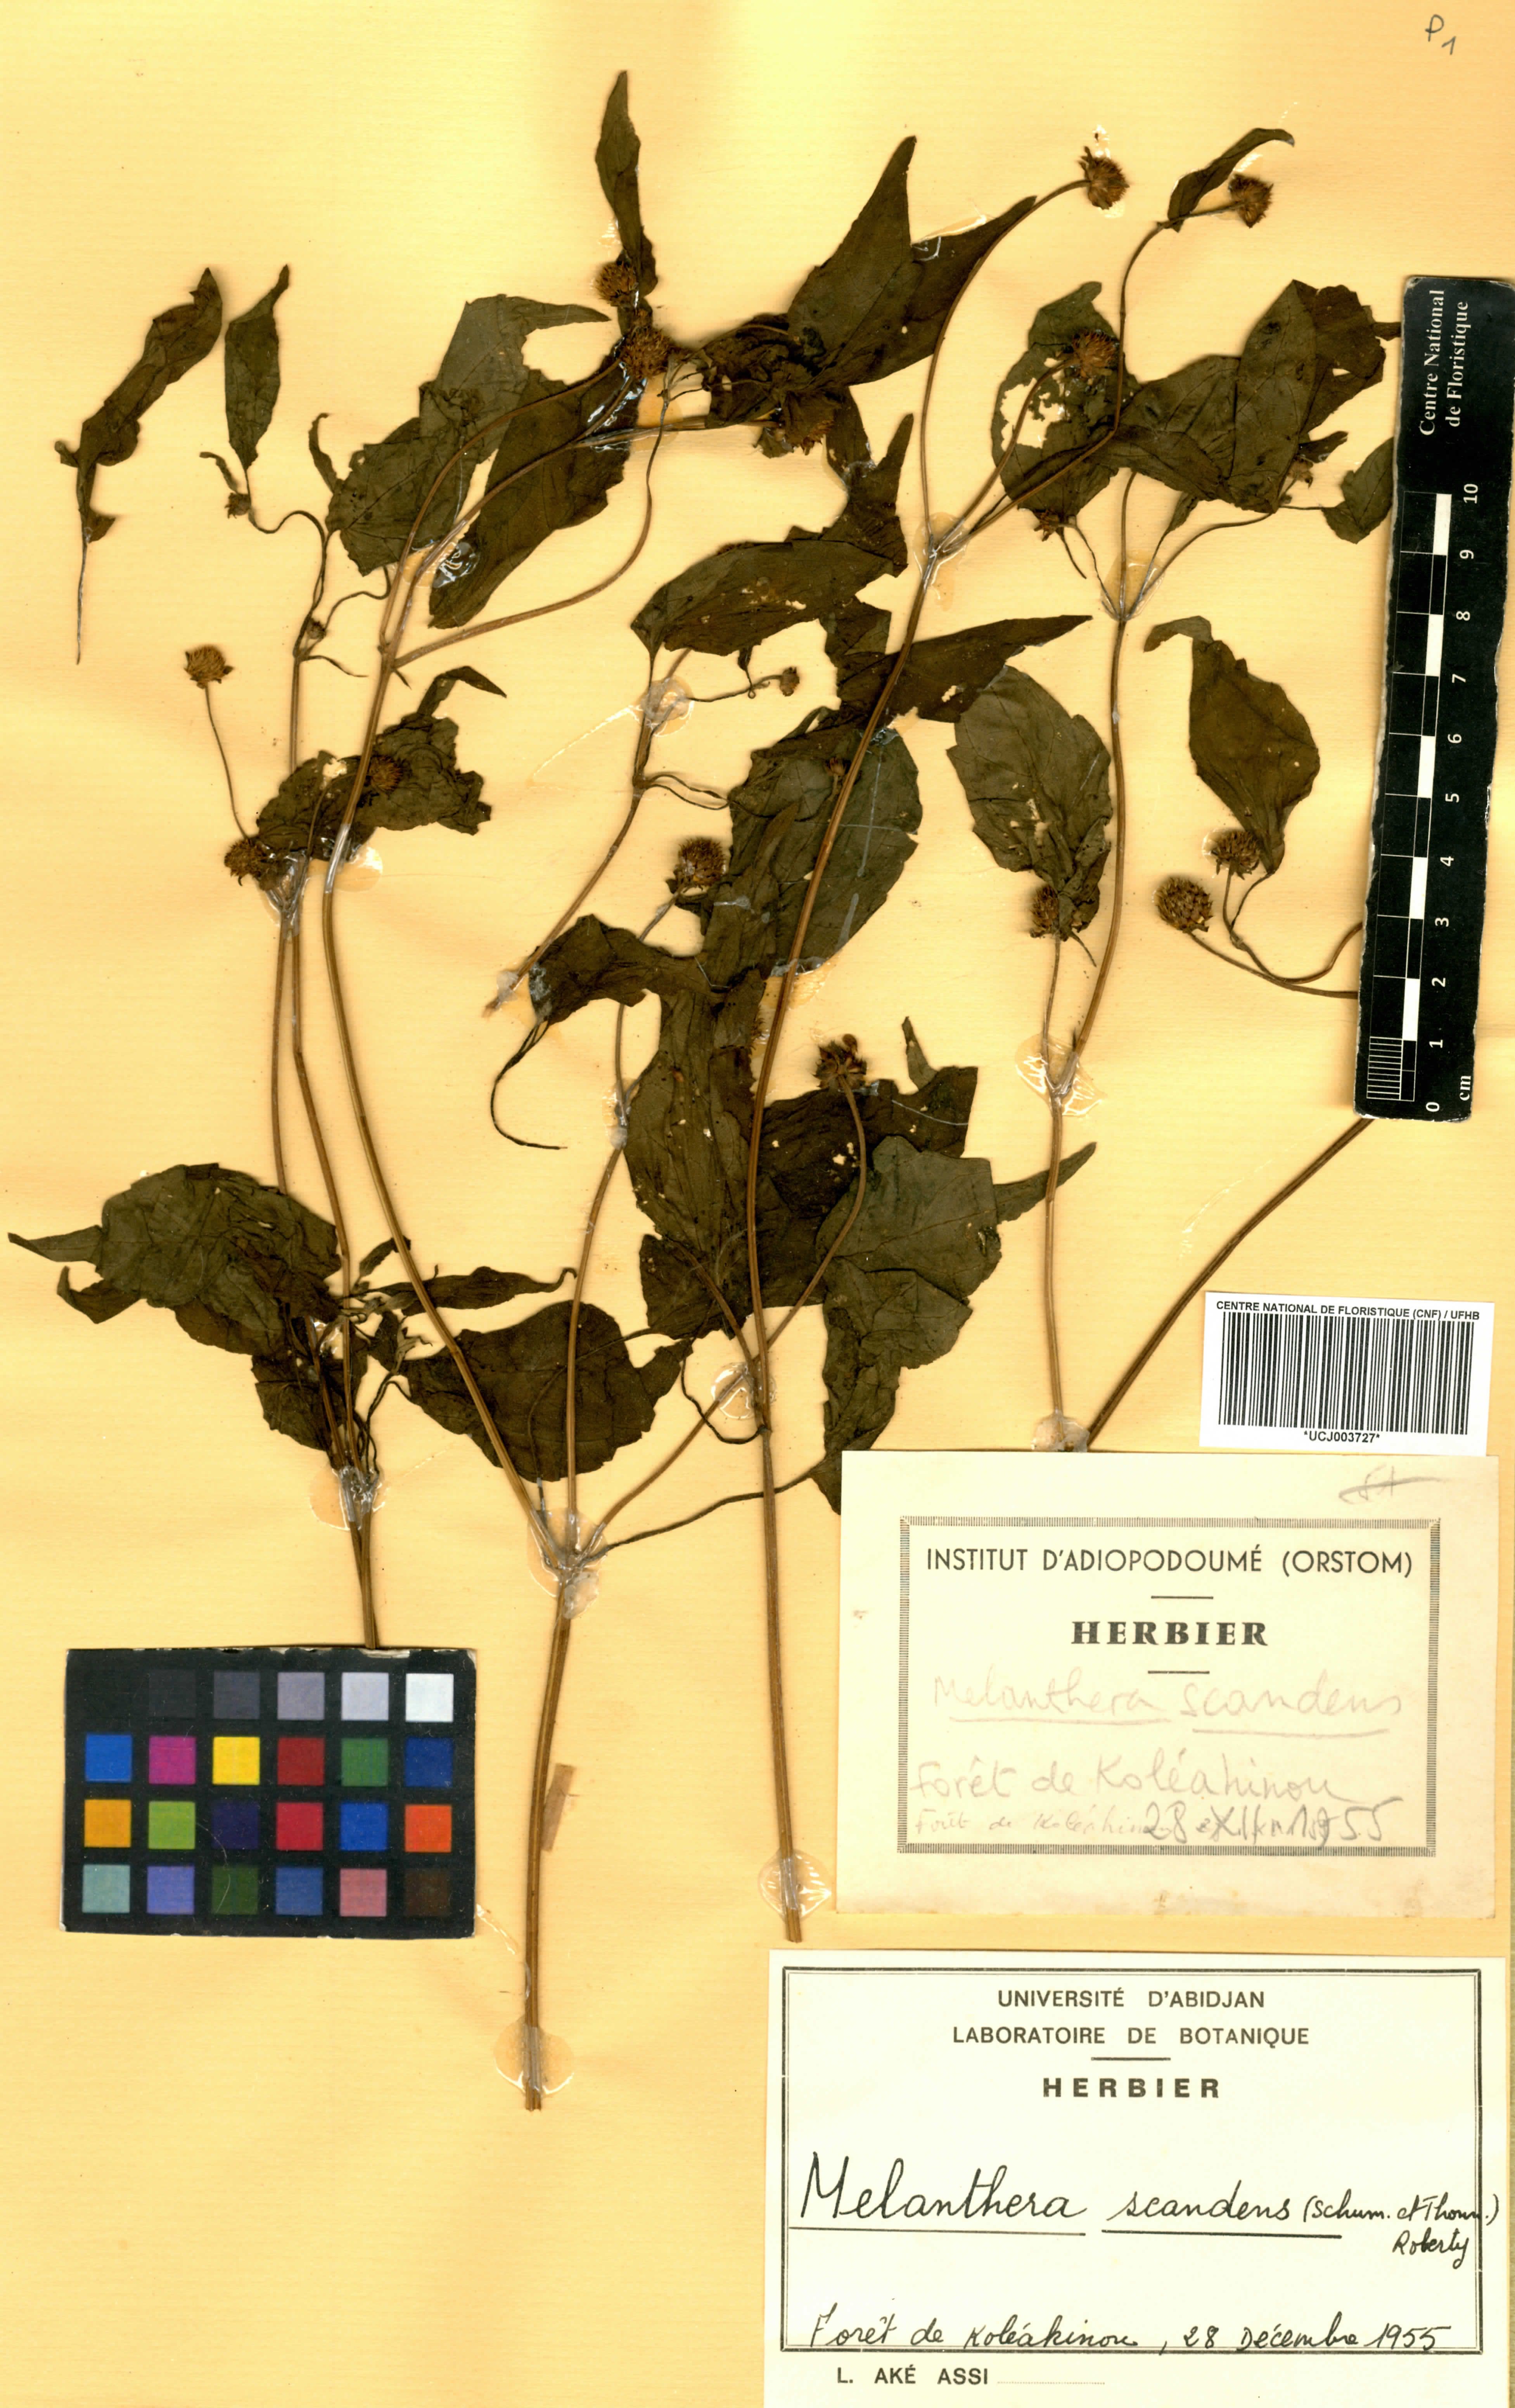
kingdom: Plantae
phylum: Tracheophyta
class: Magnoliopsida
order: Asterales
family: Asteraceae
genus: Melanthera
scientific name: Melanthera scandens
